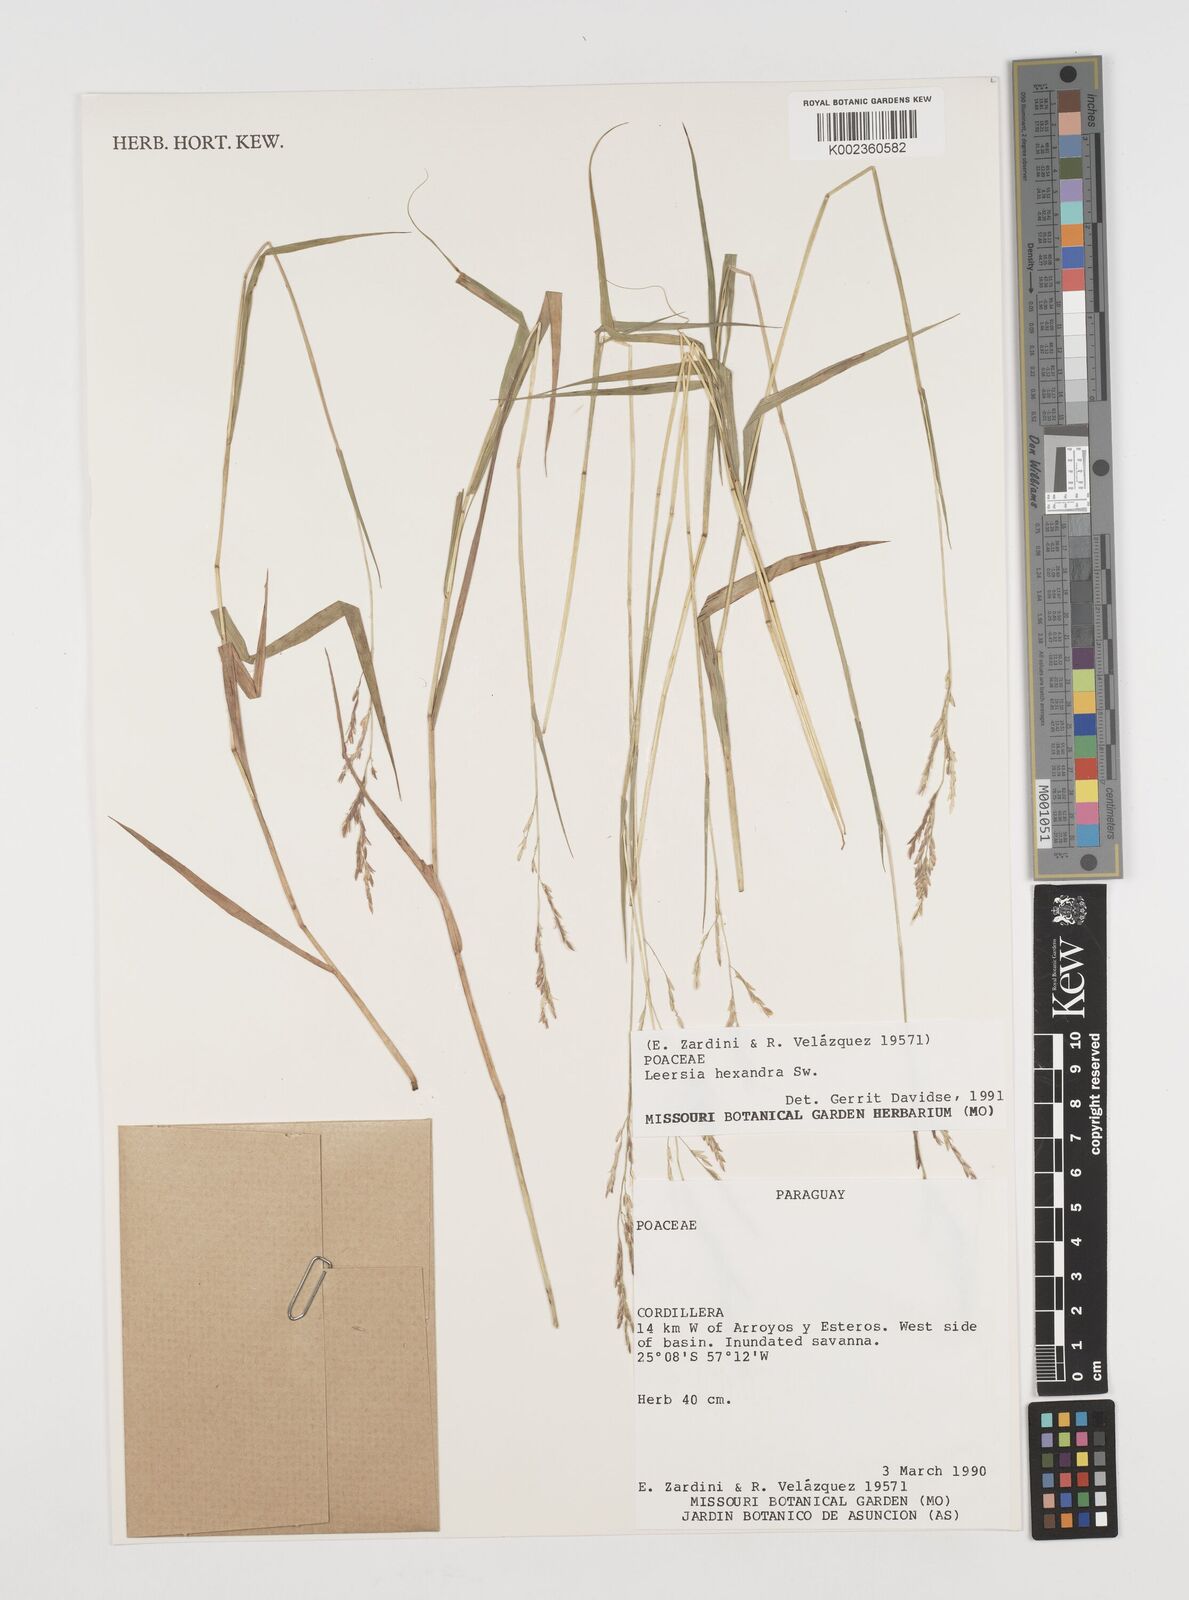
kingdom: Plantae
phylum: Tracheophyta
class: Liliopsida
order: Poales
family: Poaceae
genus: Leersia
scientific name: Leersia hexandra
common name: Southern cut grass
